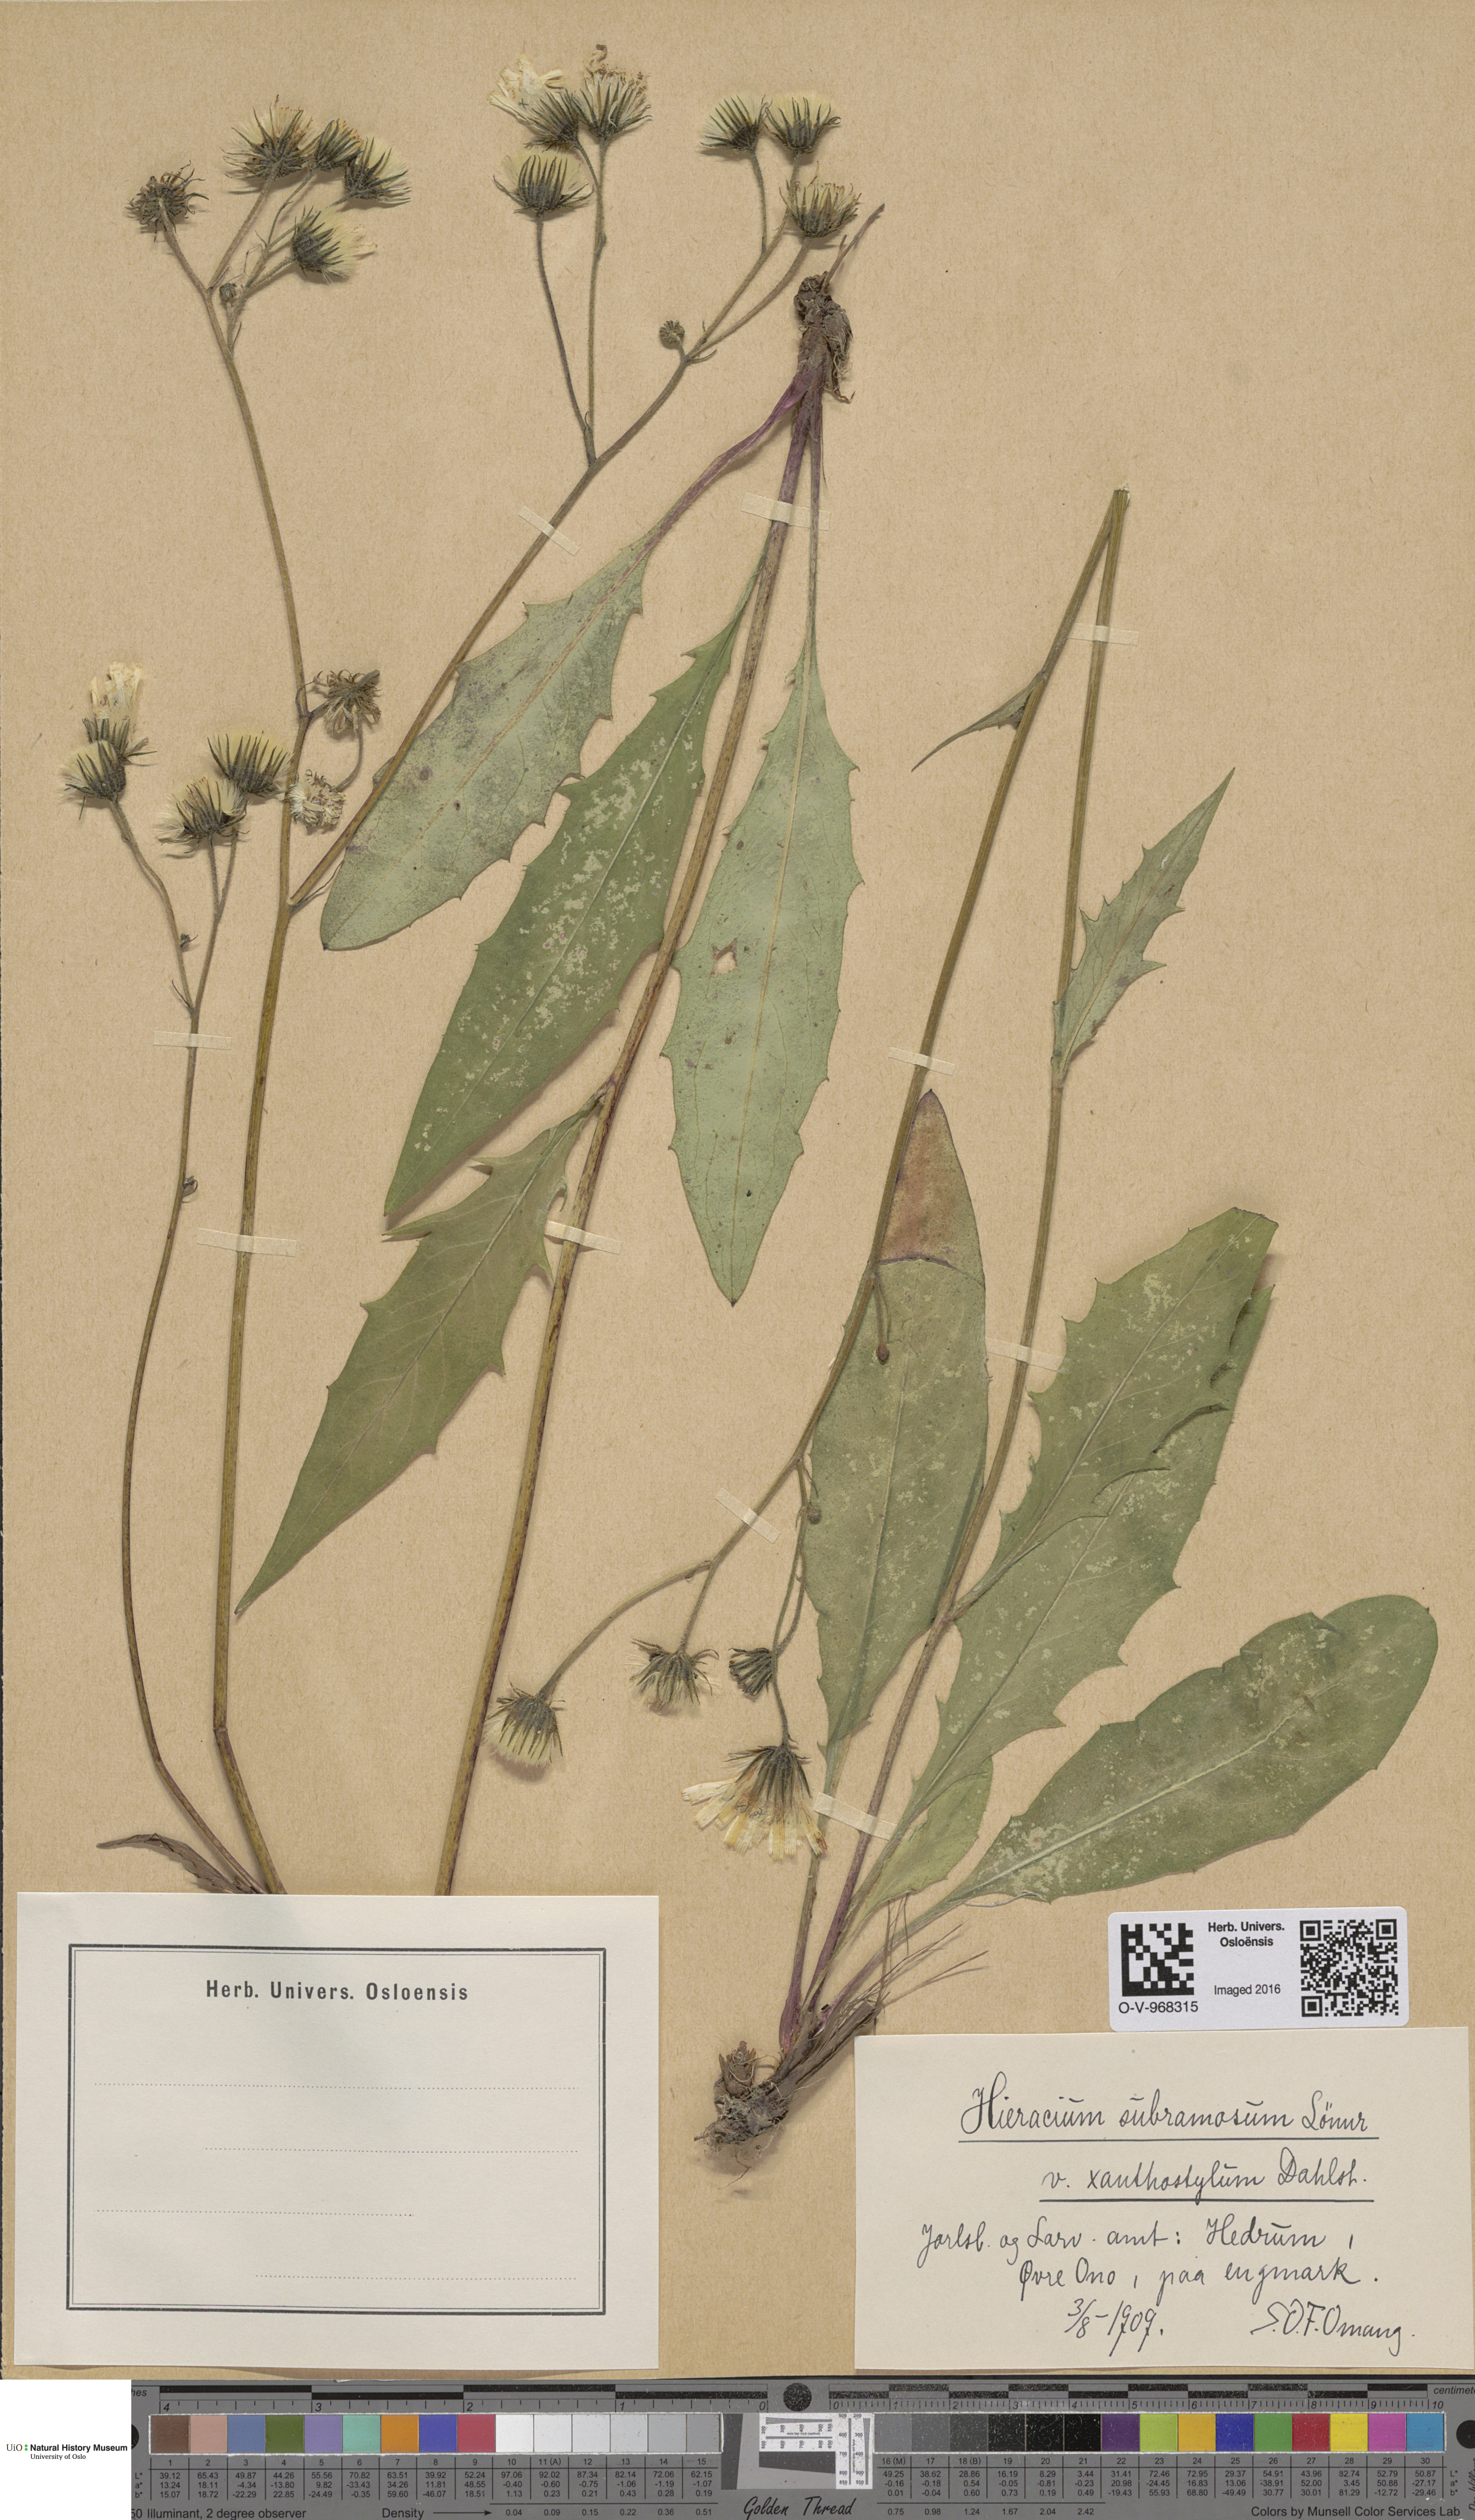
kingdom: Plantae
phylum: Tracheophyta
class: Magnoliopsida
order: Asterales
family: Asteraceae
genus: Hieracium
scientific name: Hieracium subramosum
